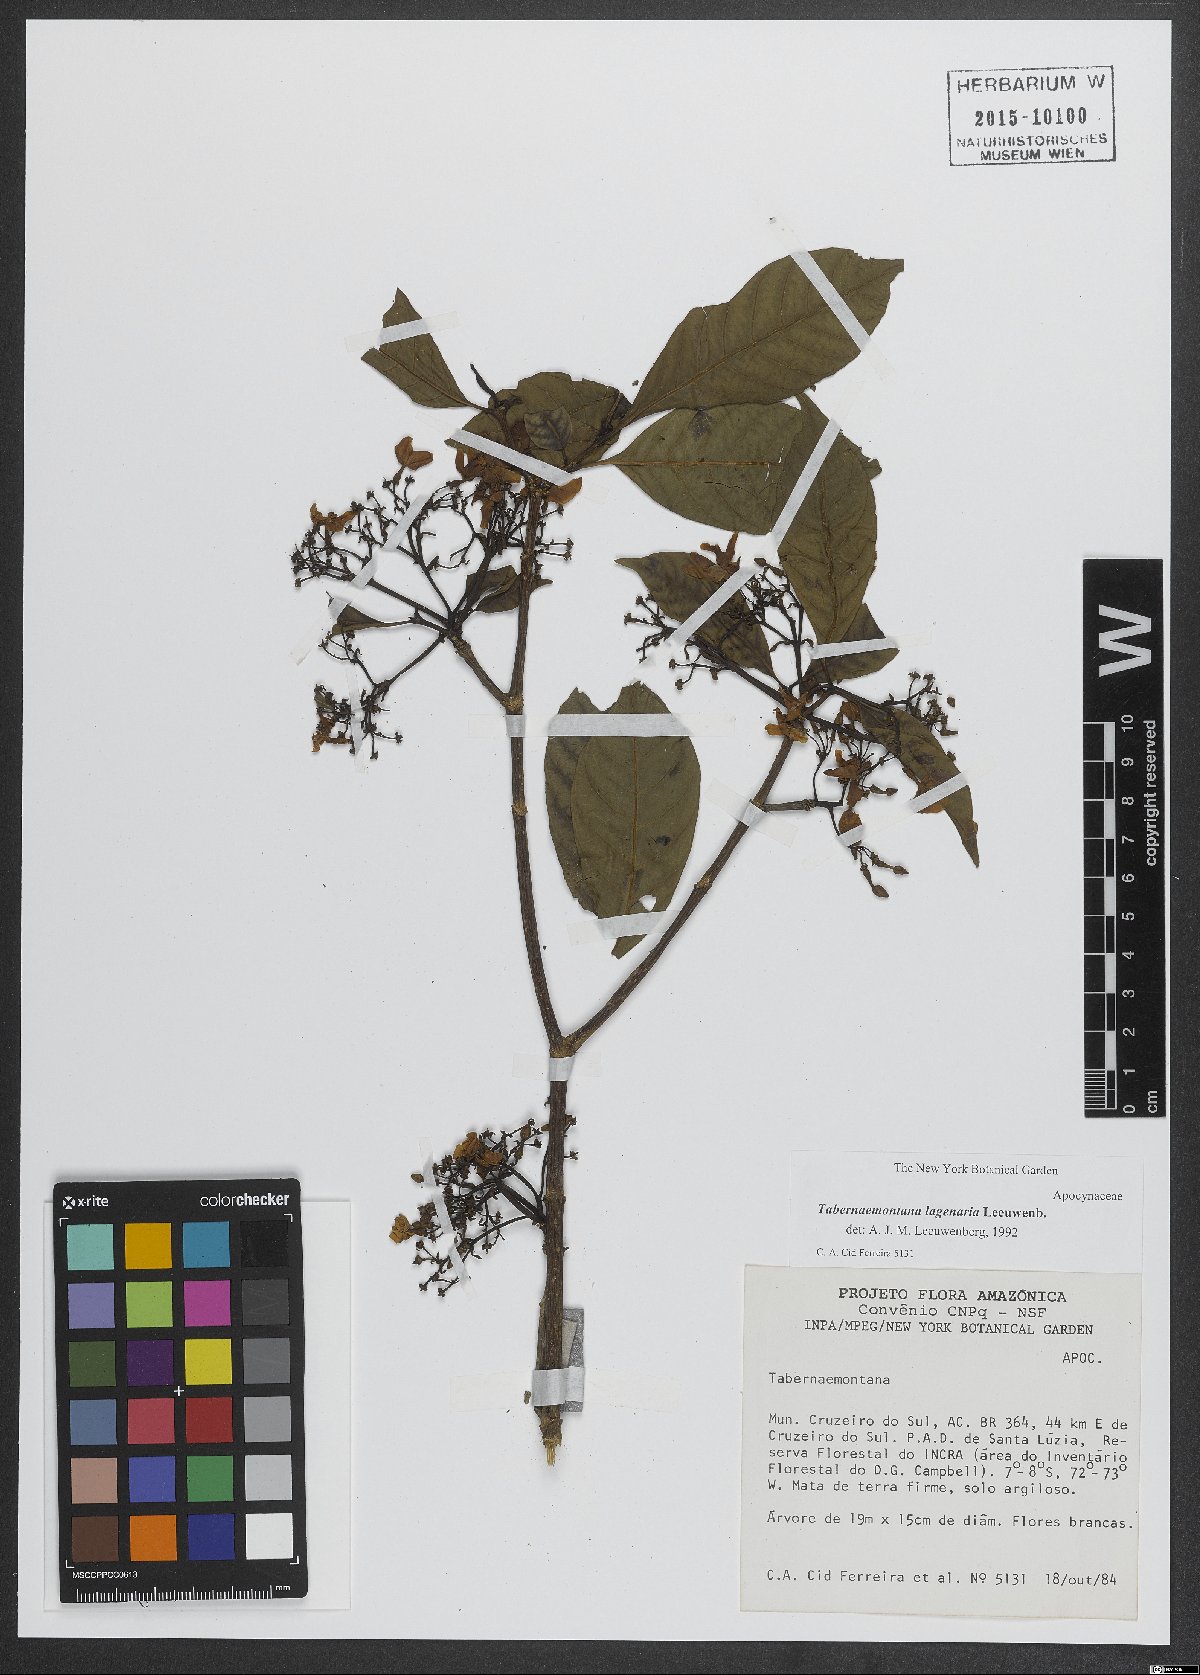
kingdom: Plantae
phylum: Tracheophyta
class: Magnoliopsida
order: Gentianales
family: Apocynaceae
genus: Tabernaemontana
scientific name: Tabernaemontana lagenaria
